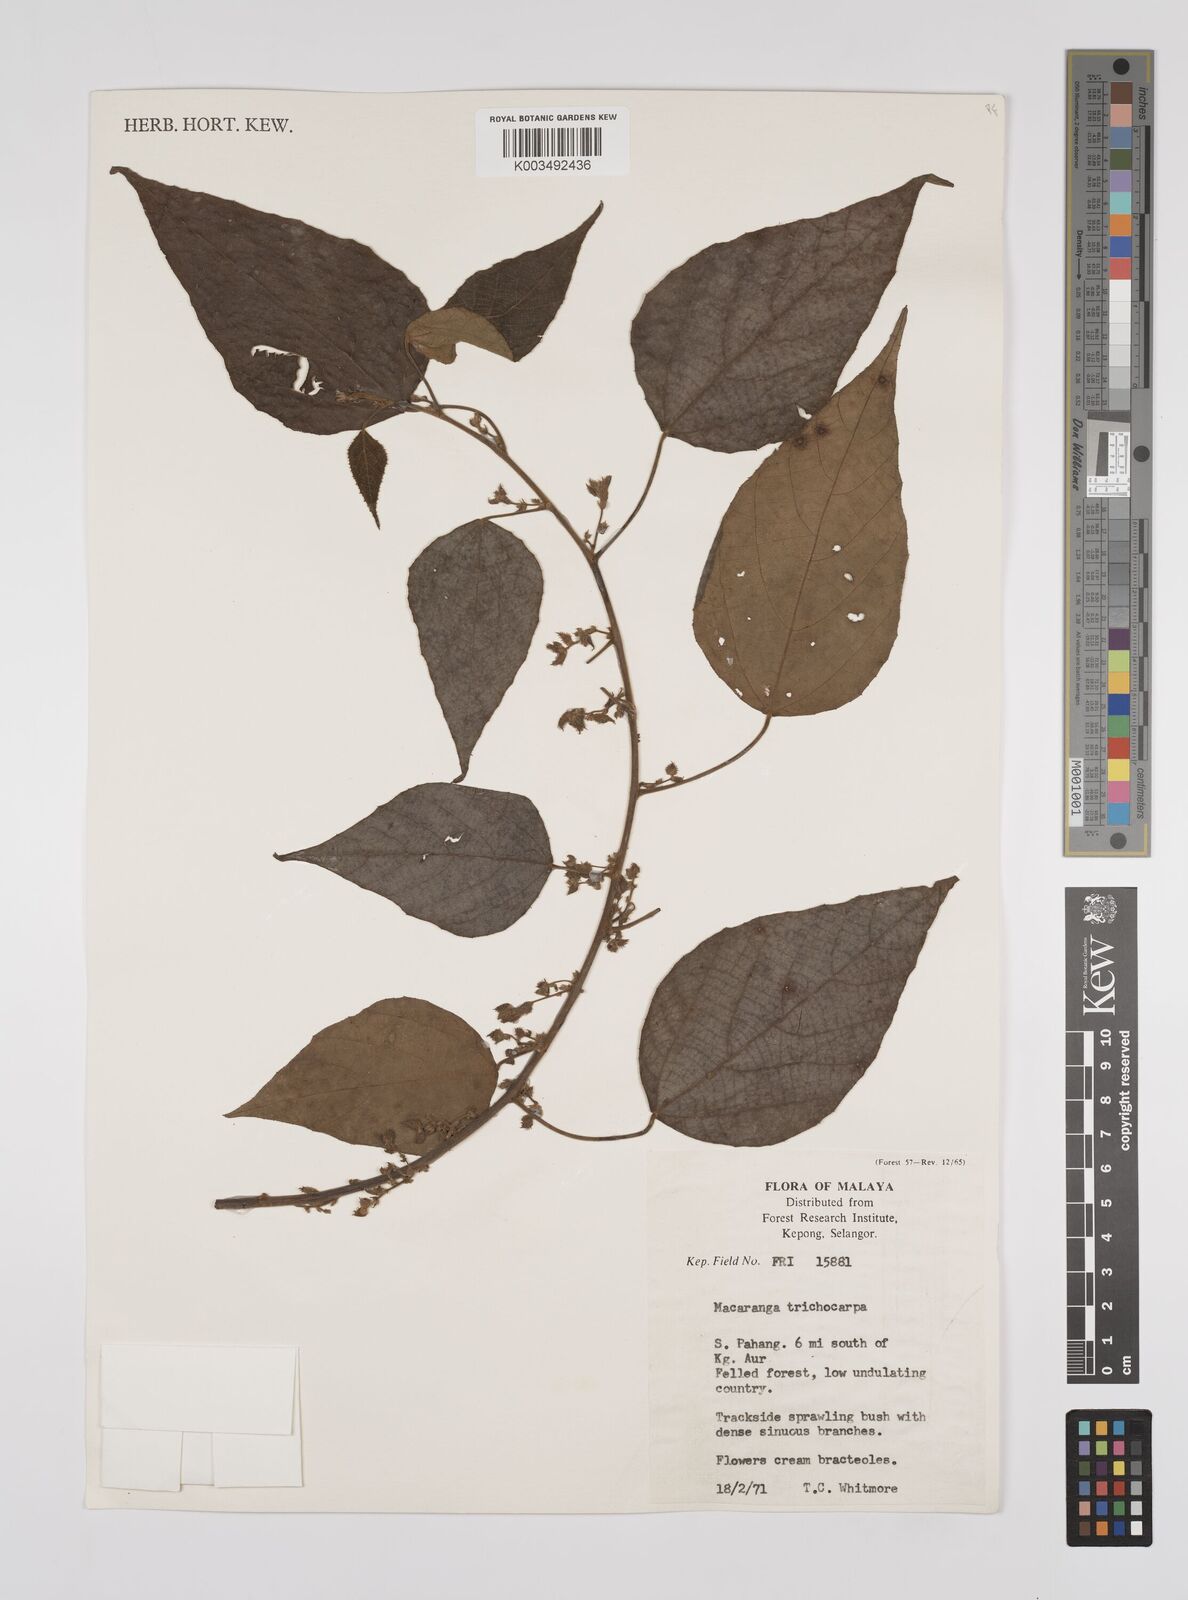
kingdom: Plantae
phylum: Tracheophyta
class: Magnoliopsida
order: Malpighiales
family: Euphorbiaceae
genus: Macaranga
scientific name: Macaranga trichocarpa
